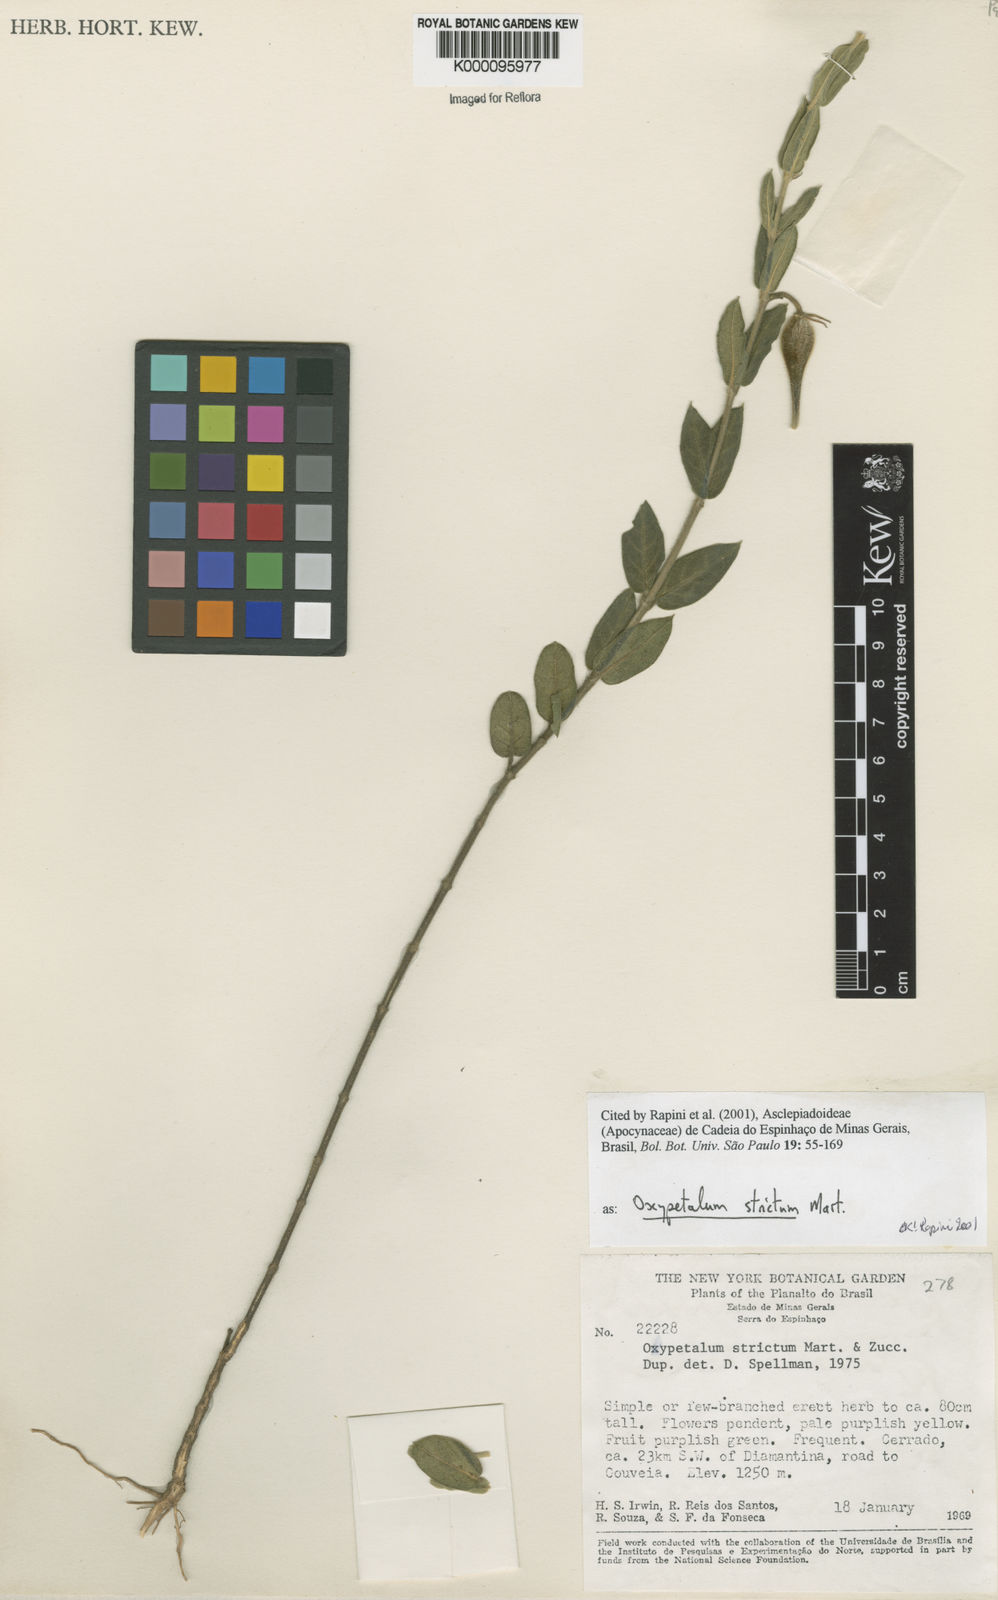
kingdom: Plantae
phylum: Tracheophyta
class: Magnoliopsida
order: Gentianales
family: Apocynaceae
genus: Oxypetalum
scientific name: Oxypetalum strictum
